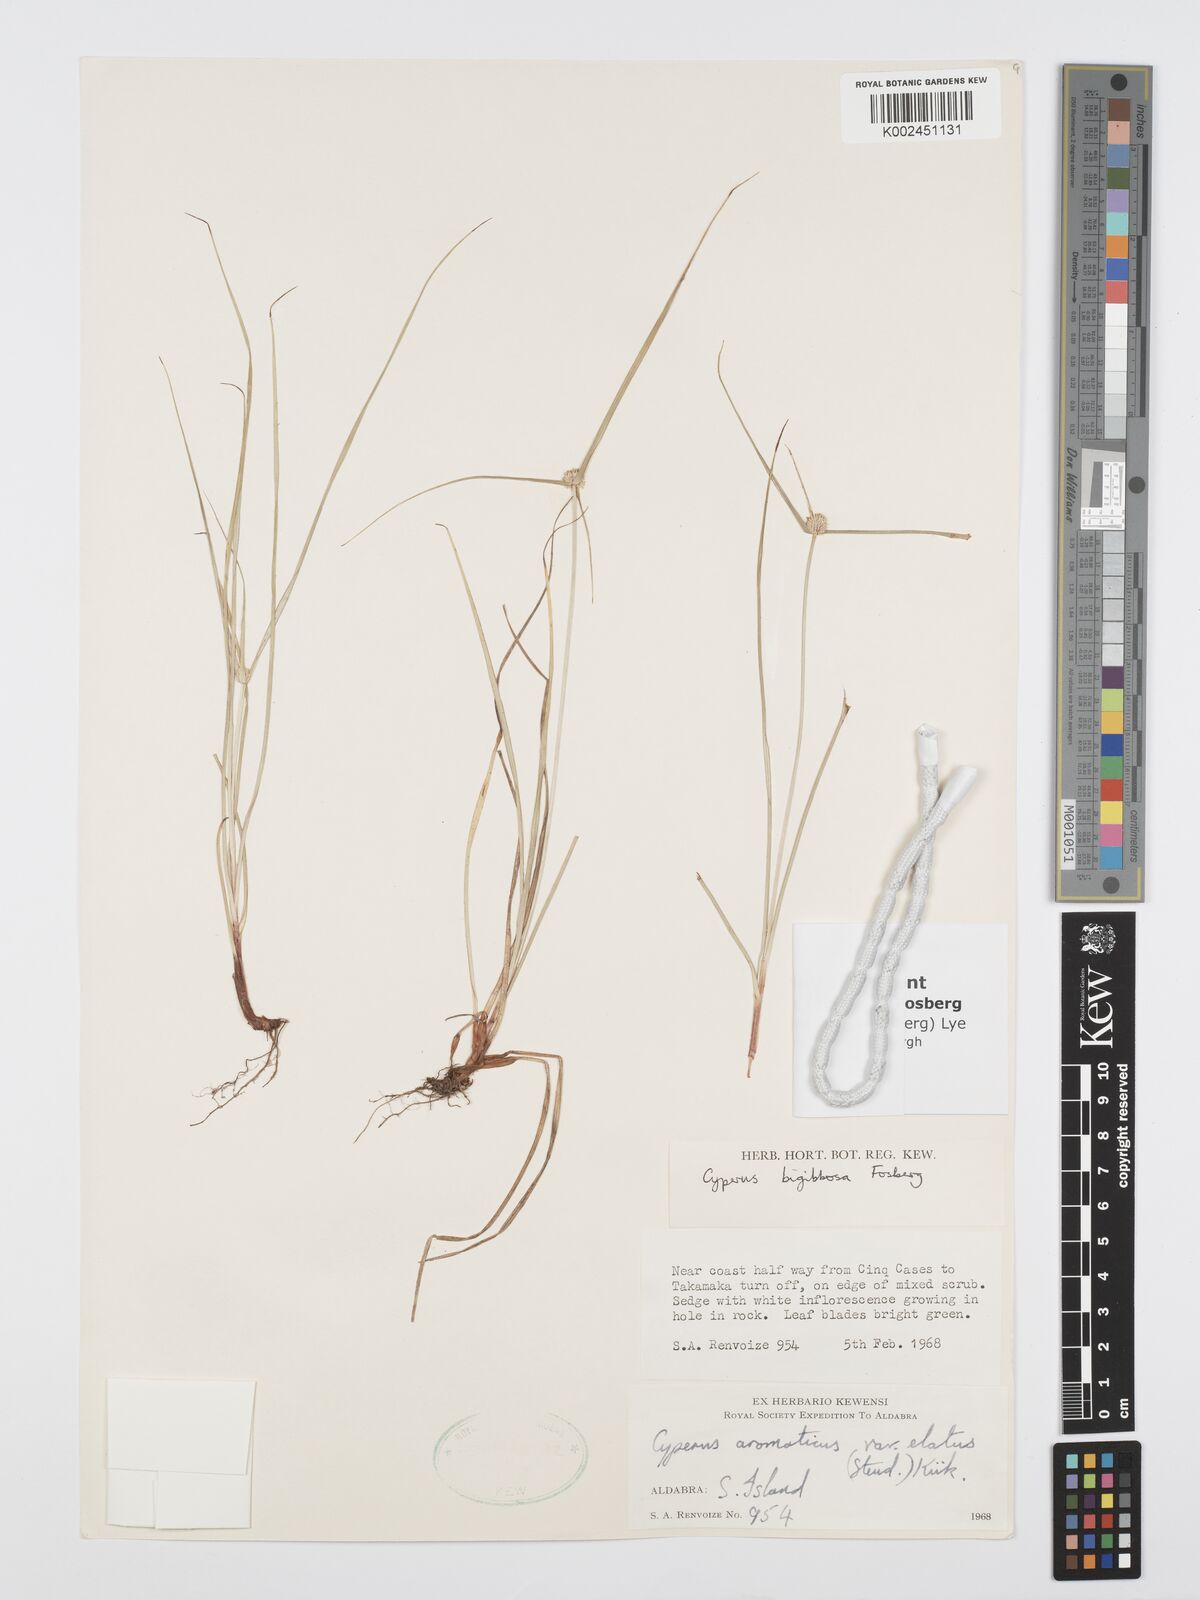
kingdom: Plantae
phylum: Tracheophyta
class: Liliopsida
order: Poales
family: Cyperaceae
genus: Cyperus
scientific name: Cyperus bigibbosa
